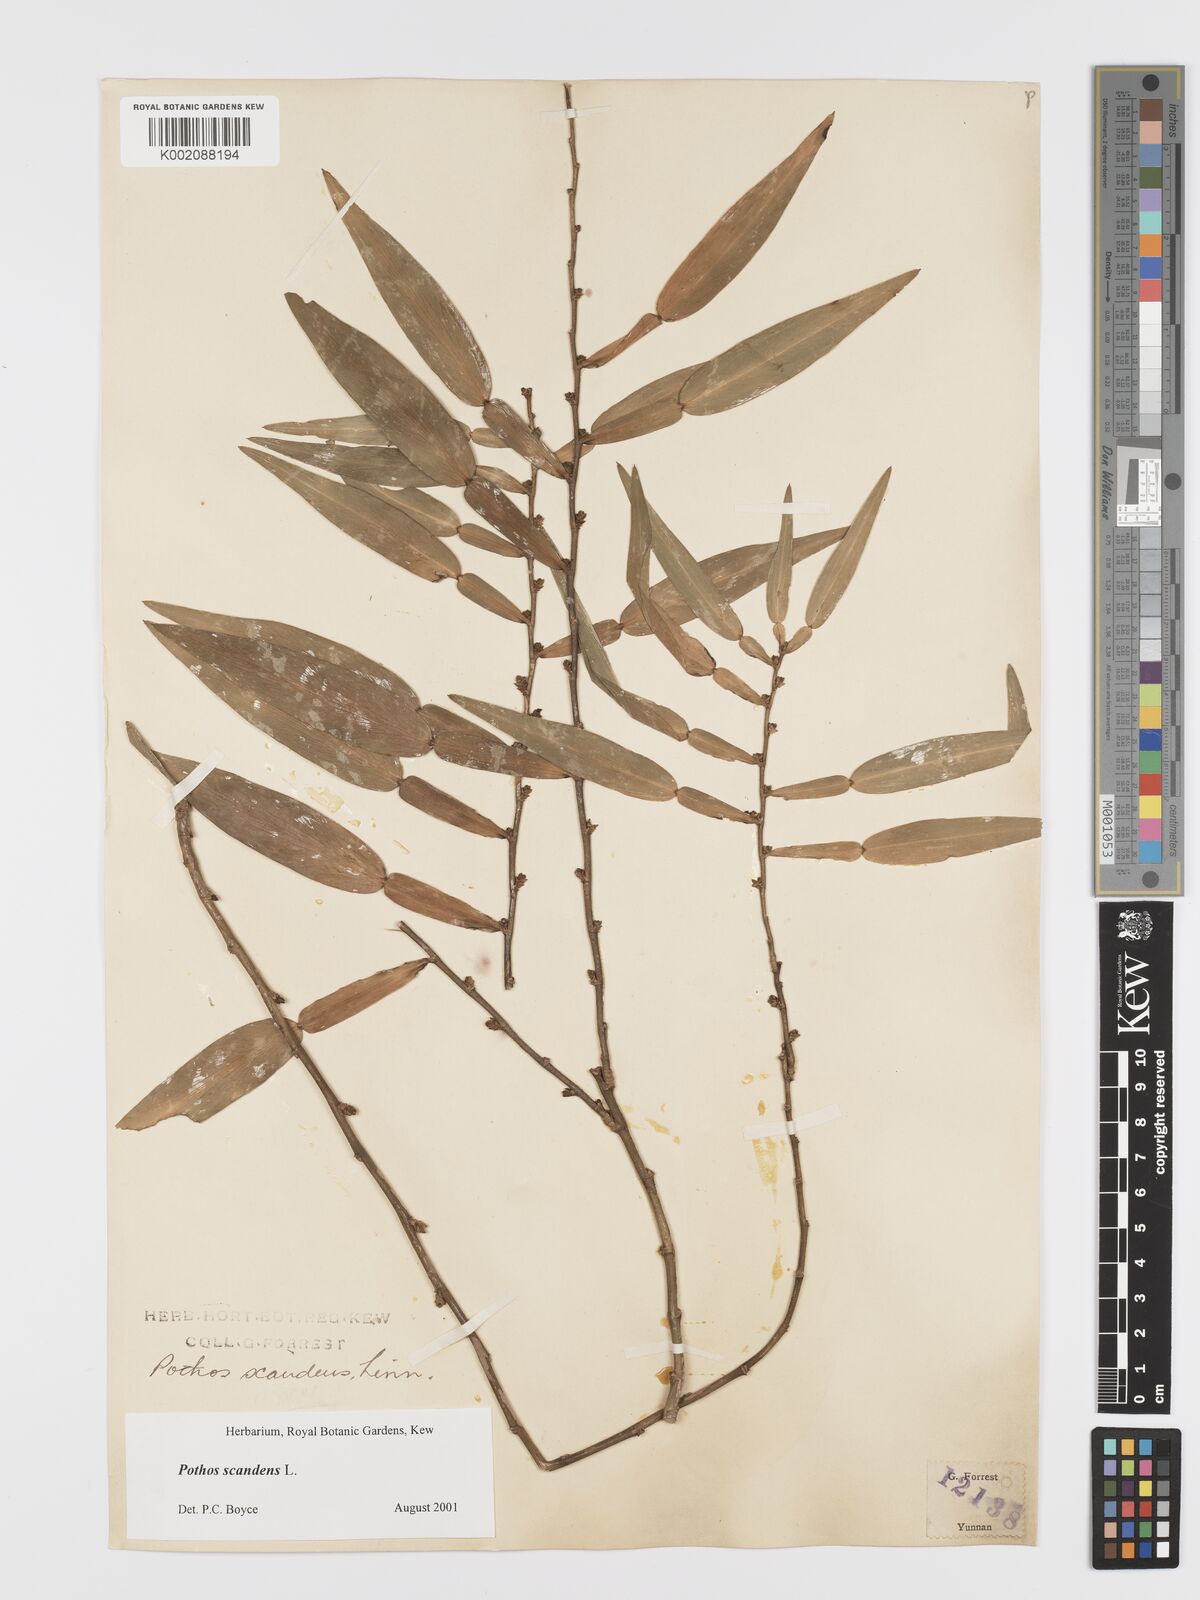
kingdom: Plantae
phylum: Tracheophyta
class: Liliopsida
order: Alismatales
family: Araceae
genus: Pothos
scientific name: Pothos scandens
